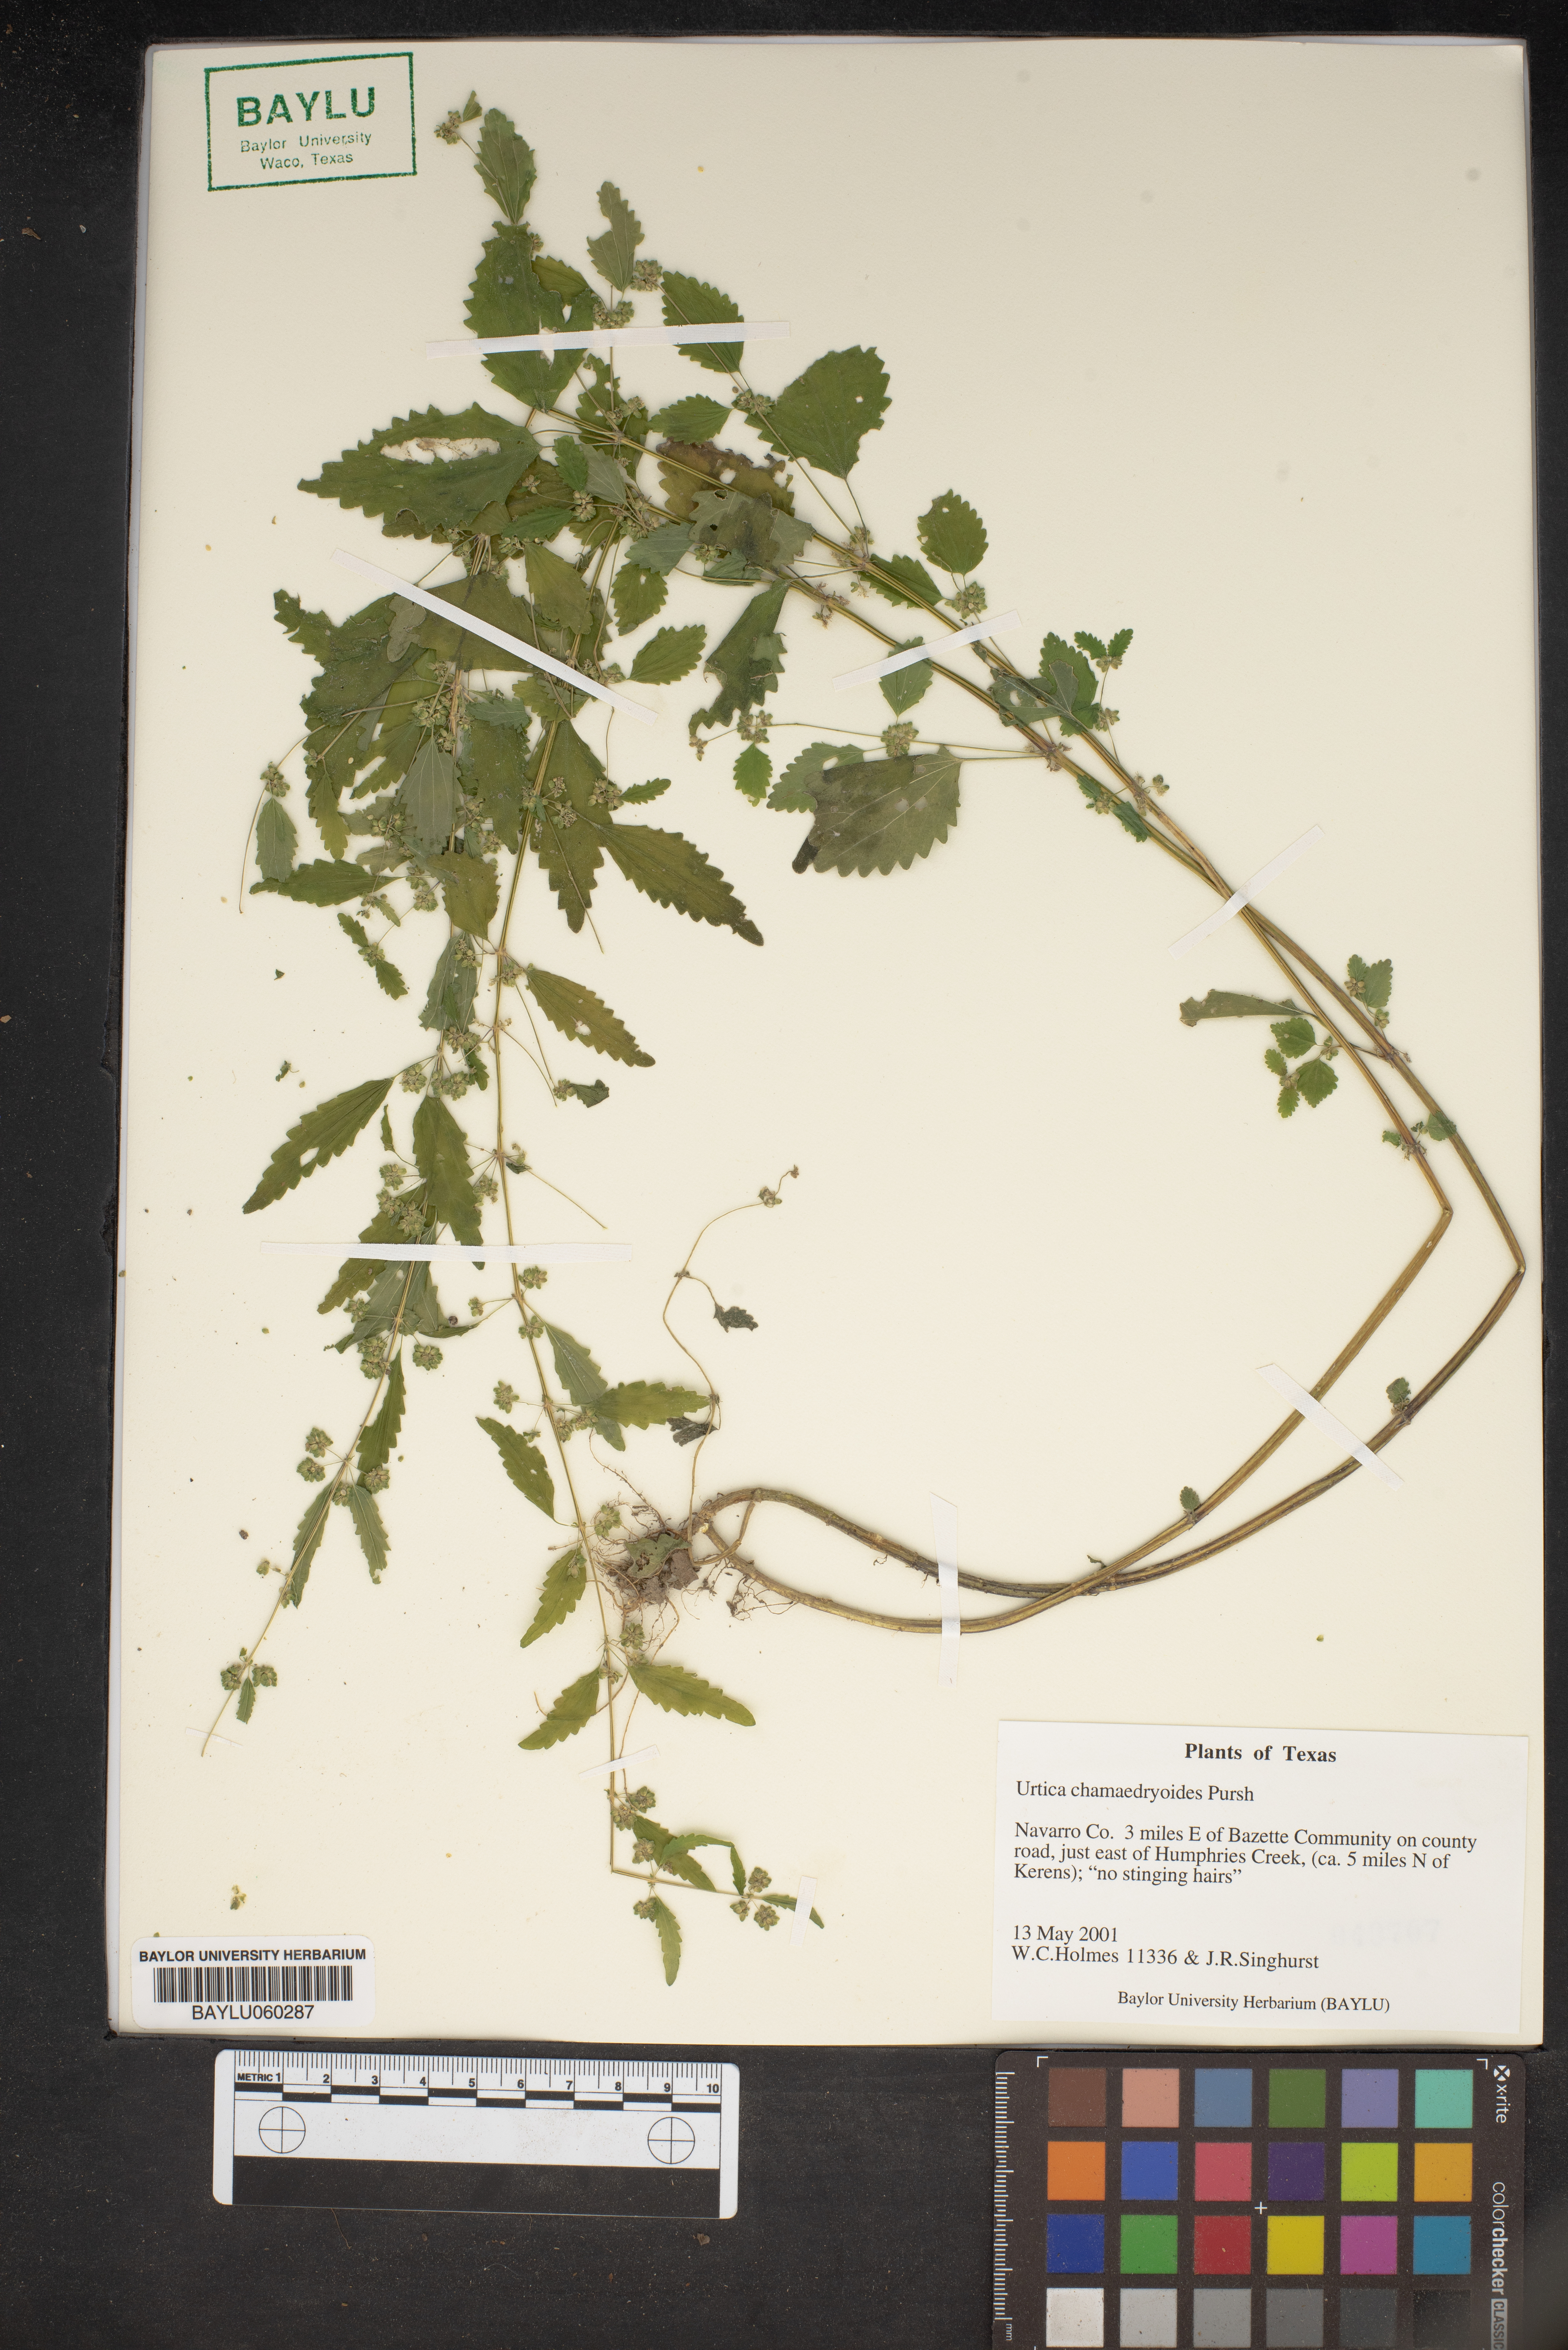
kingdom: Plantae
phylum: Tracheophyta
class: Magnoliopsida
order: Rosales
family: Urticaceae
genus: Urtica
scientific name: Urtica chamaedryoides
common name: Heart-leaf nettle
